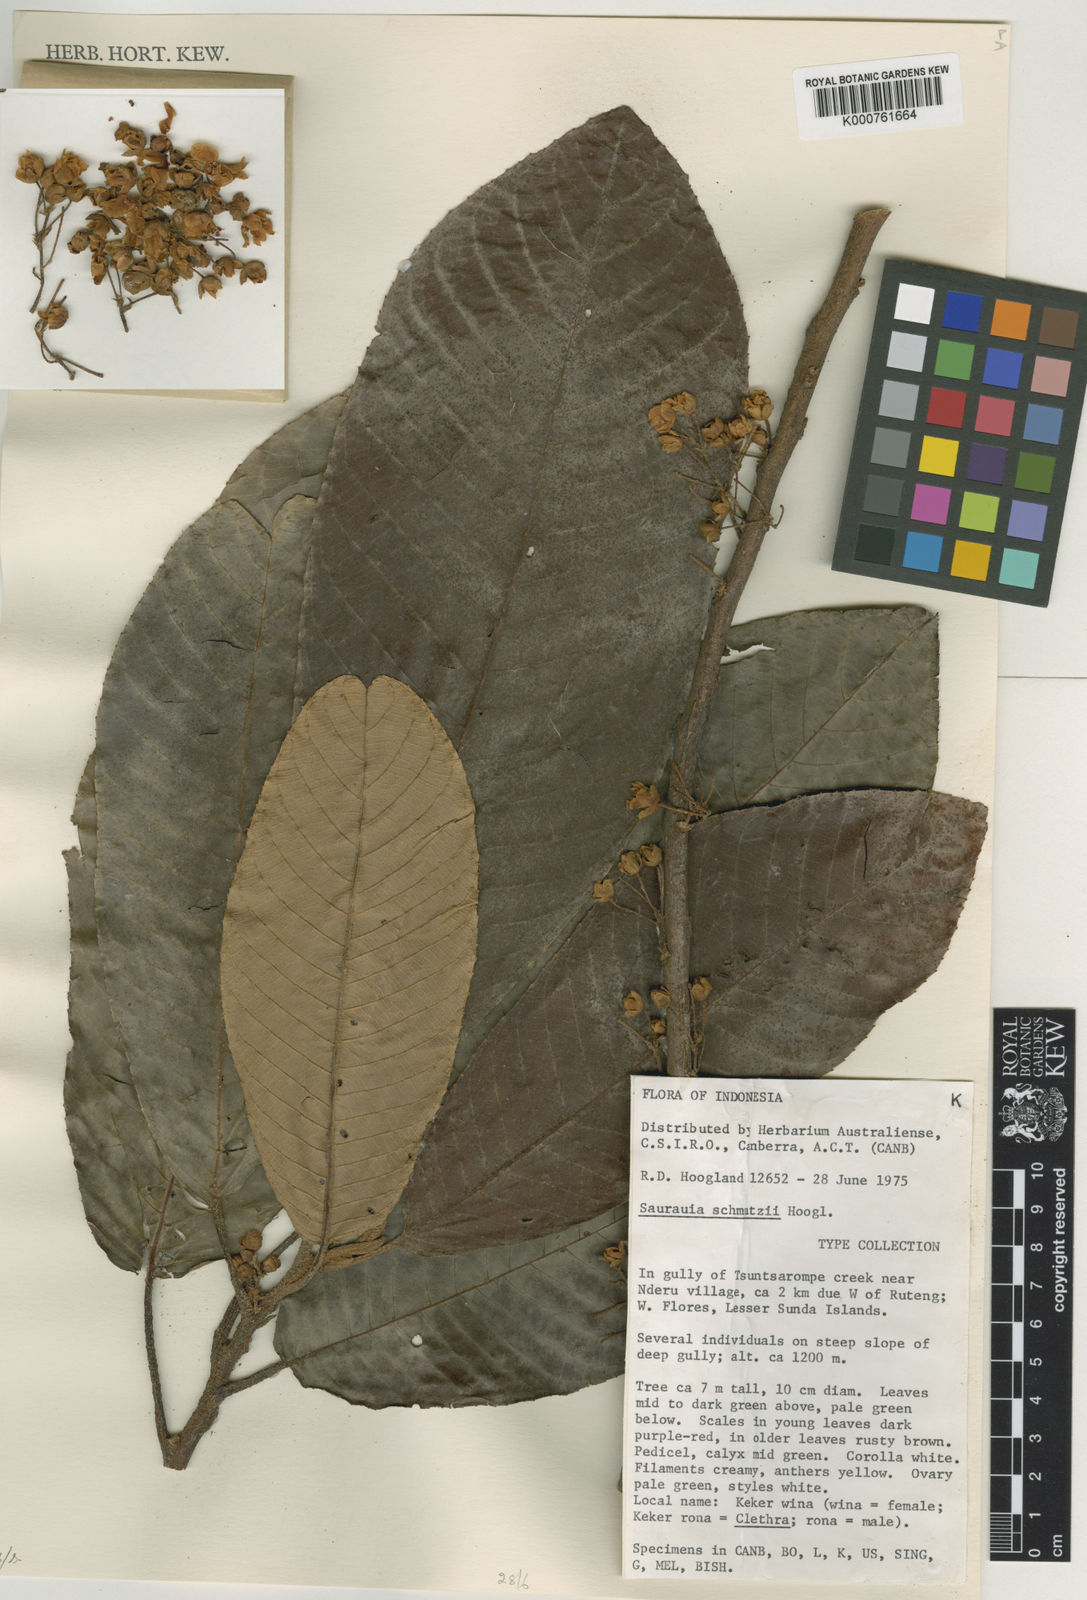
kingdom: Plantae
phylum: Tracheophyta
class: Magnoliopsida
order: Ericales
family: Actinidiaceae
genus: Saurauia
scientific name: Saurauia schmutzii
